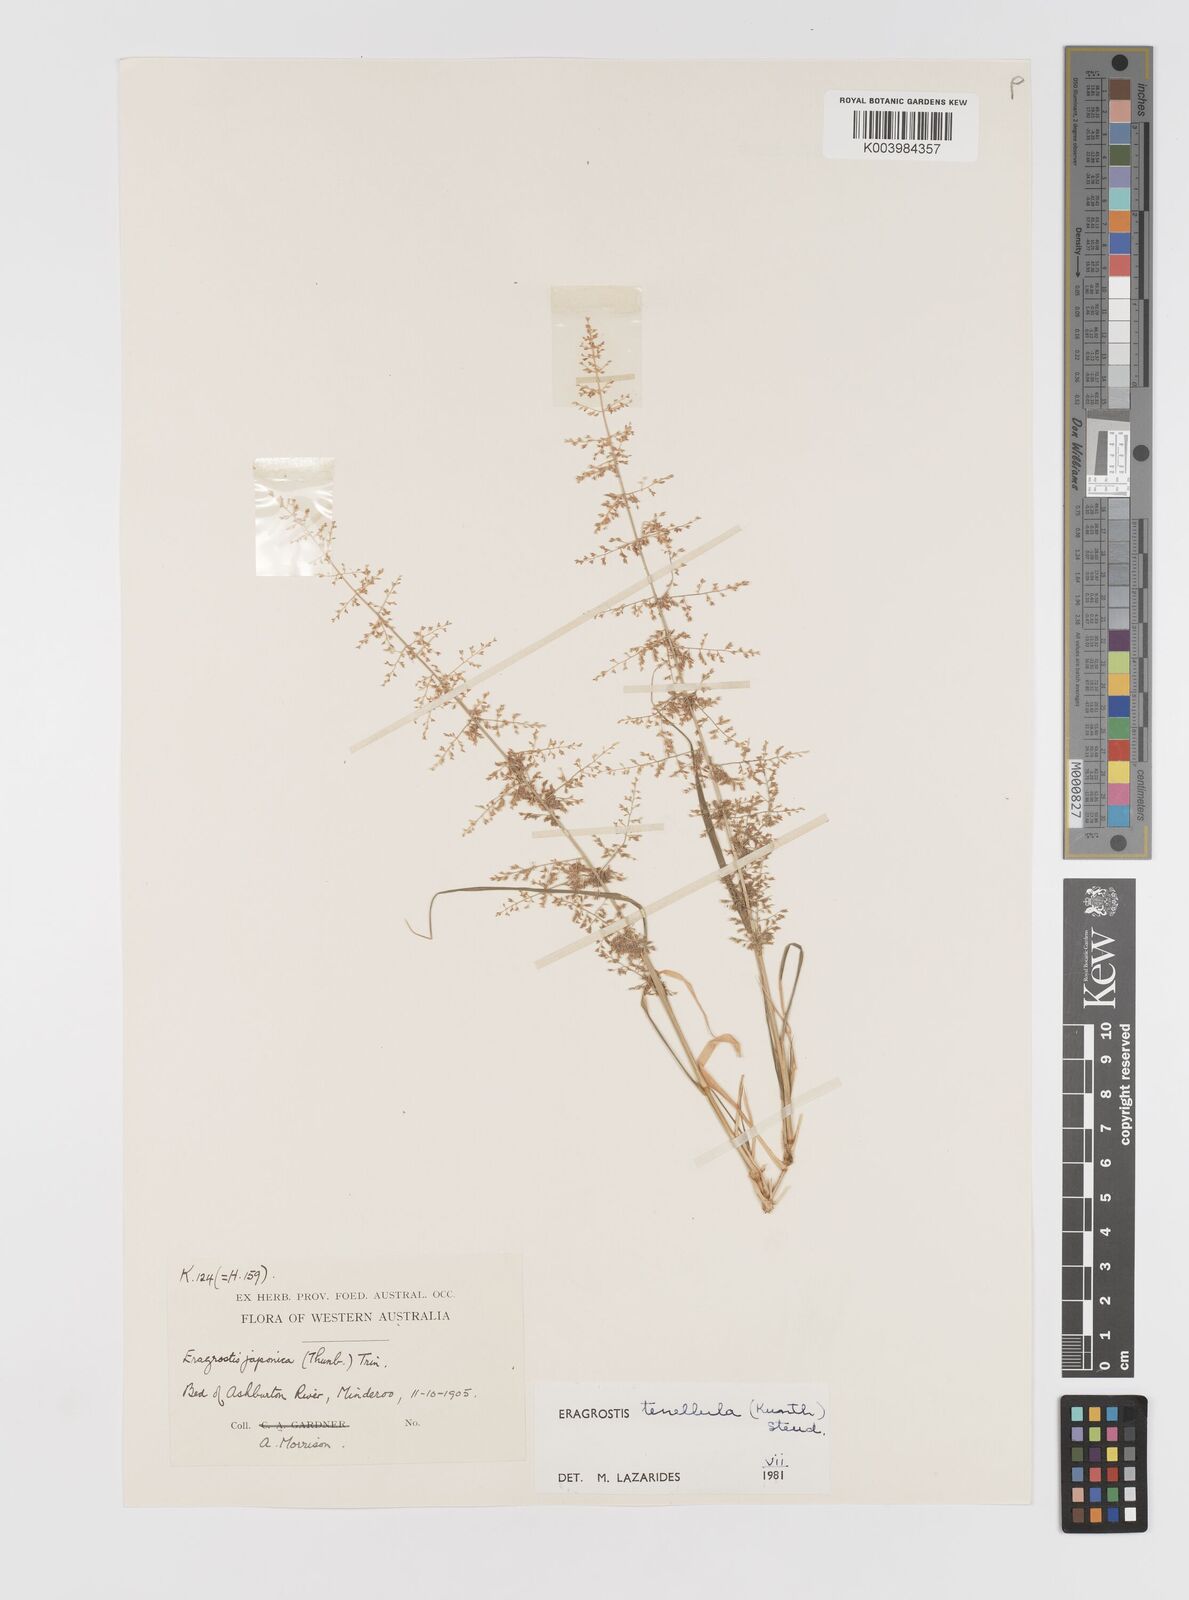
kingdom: Plantae
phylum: Tracheophyta
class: Liliopsida
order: Poales
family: Poaceae
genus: Eragrostis
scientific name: Eragrostis tenellula
